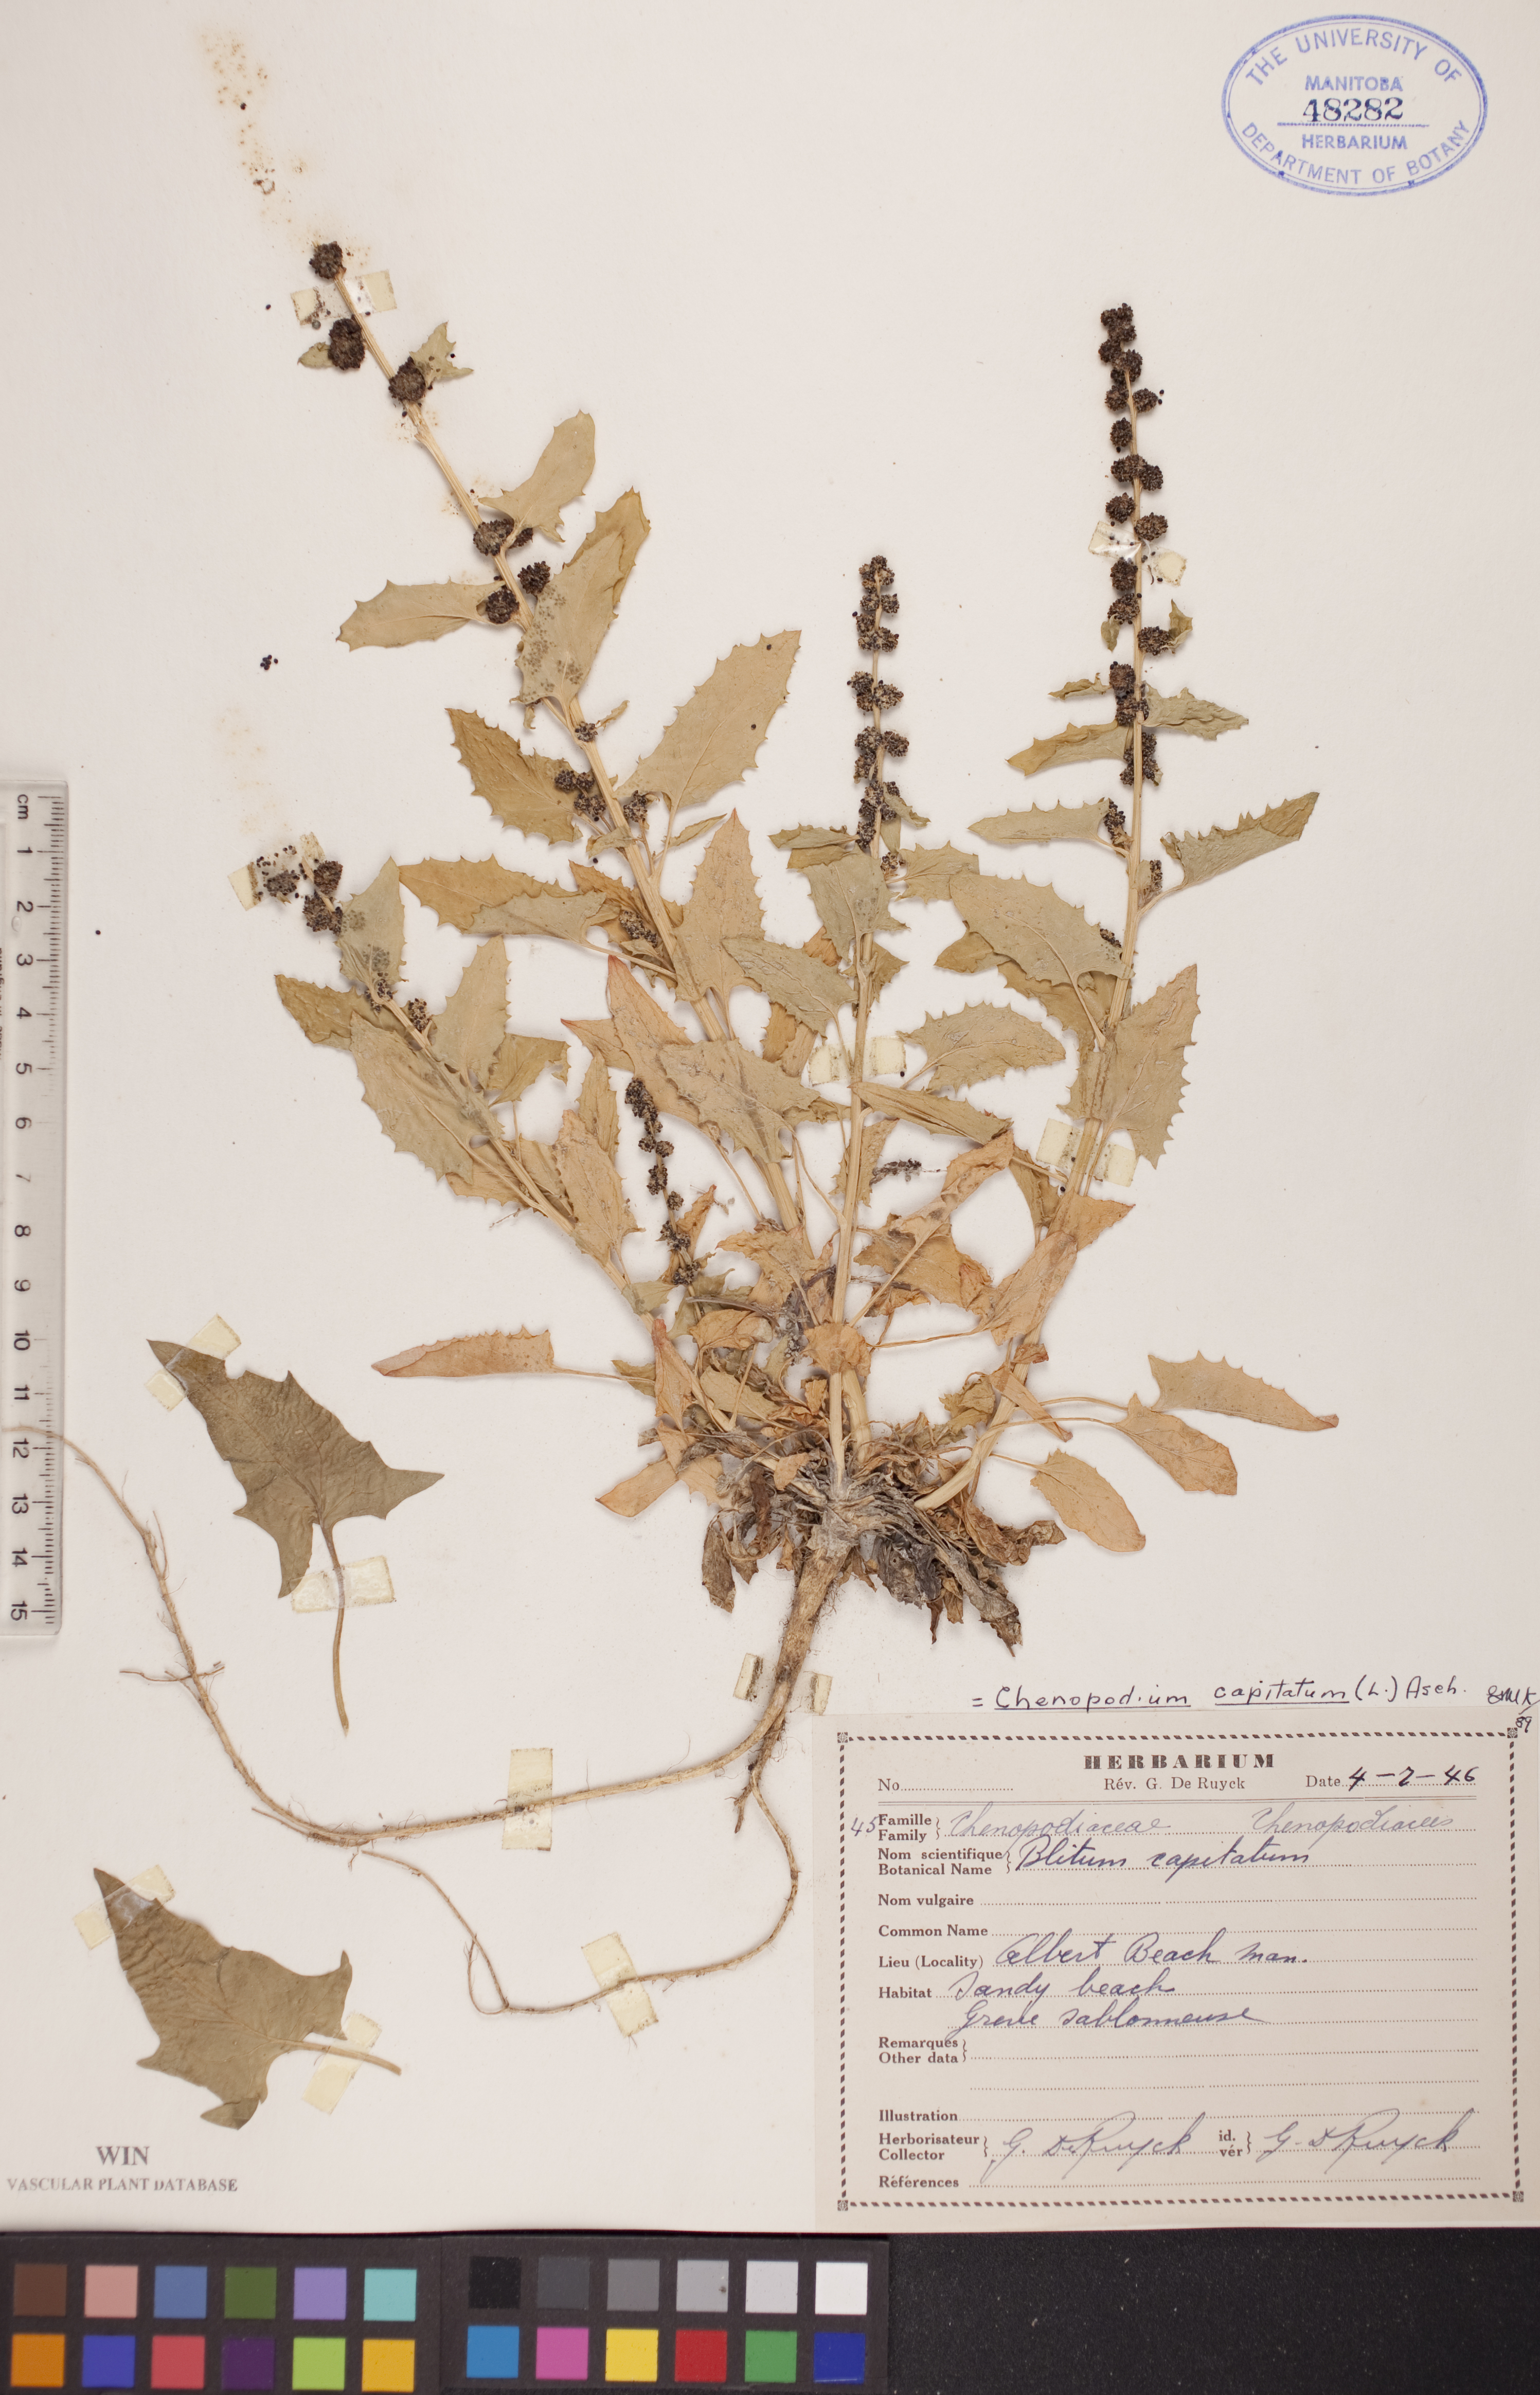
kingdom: Plantae
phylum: Tracheophyta
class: Magnoliopsida
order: Caryophyllales
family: Amaranthaceae
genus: Blitum
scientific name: Blitum capitatum
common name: Strawberry-blight
